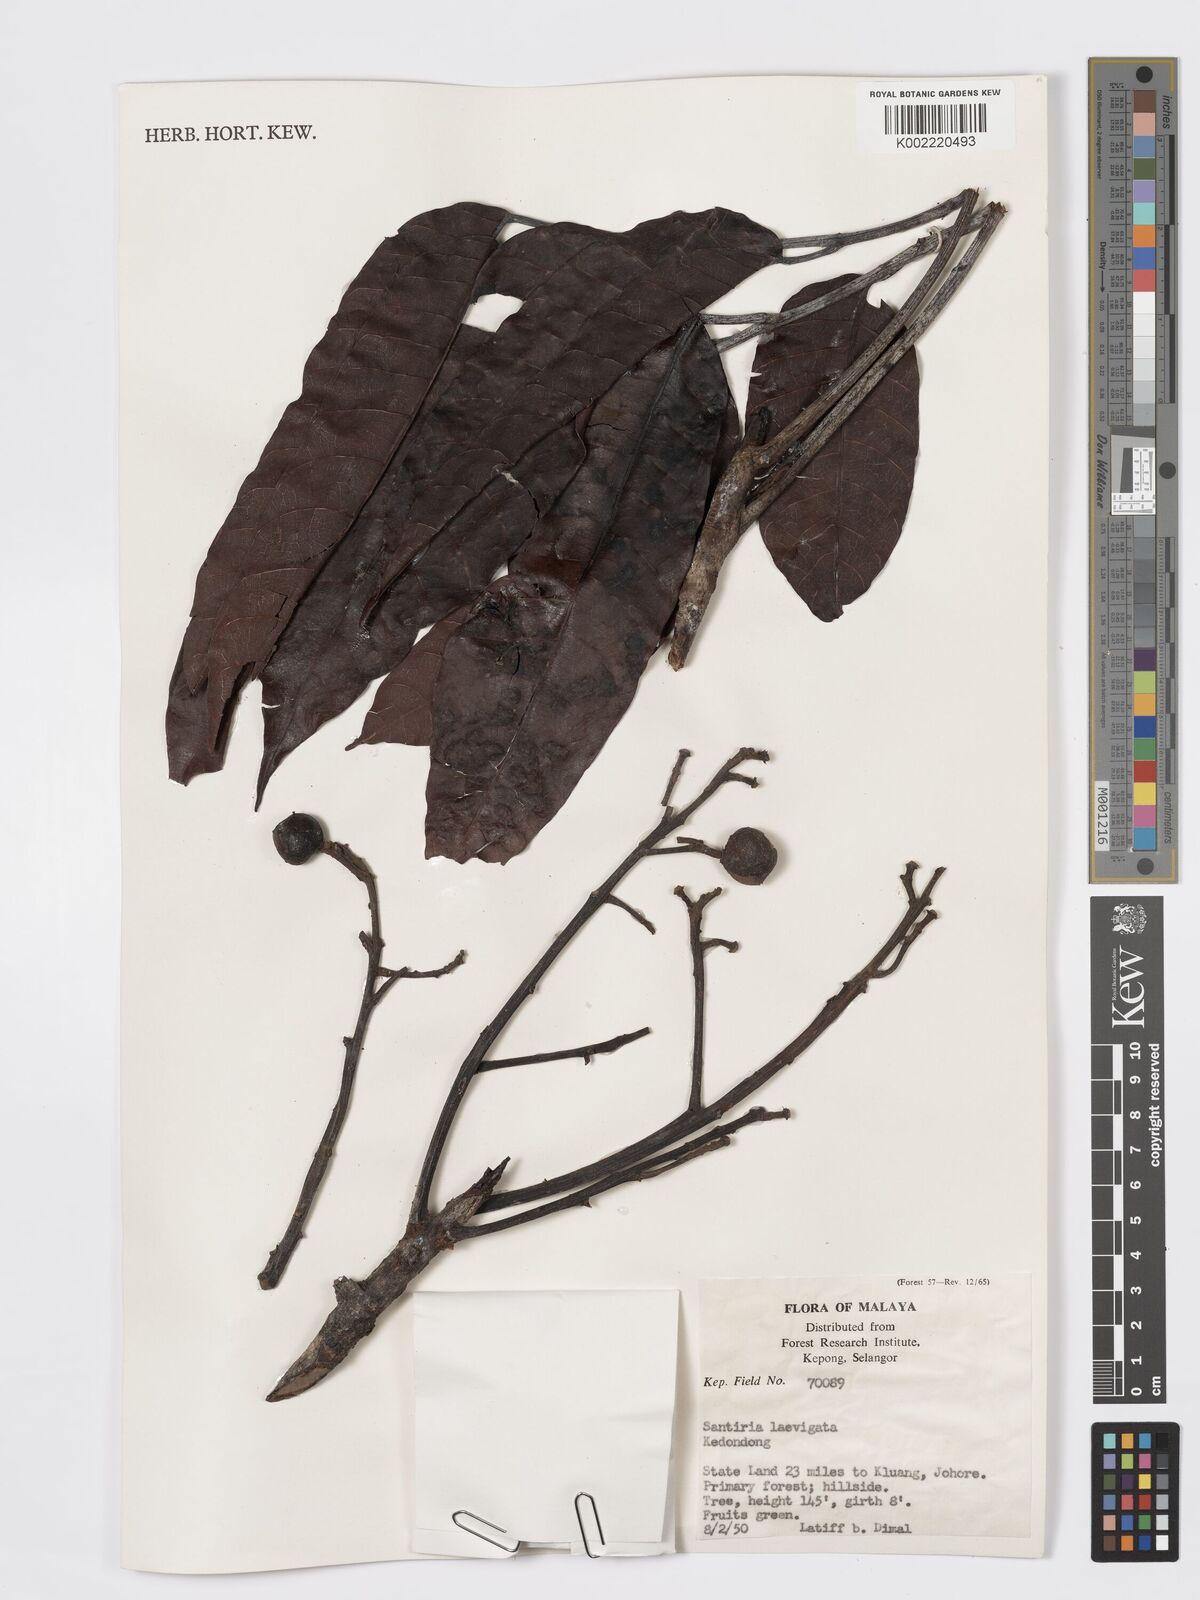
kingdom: Plantae
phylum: Tracheophyta
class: Magnoliopsida
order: Sapindales
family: Burseraceae
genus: Santiria
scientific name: Santiria laevigata
